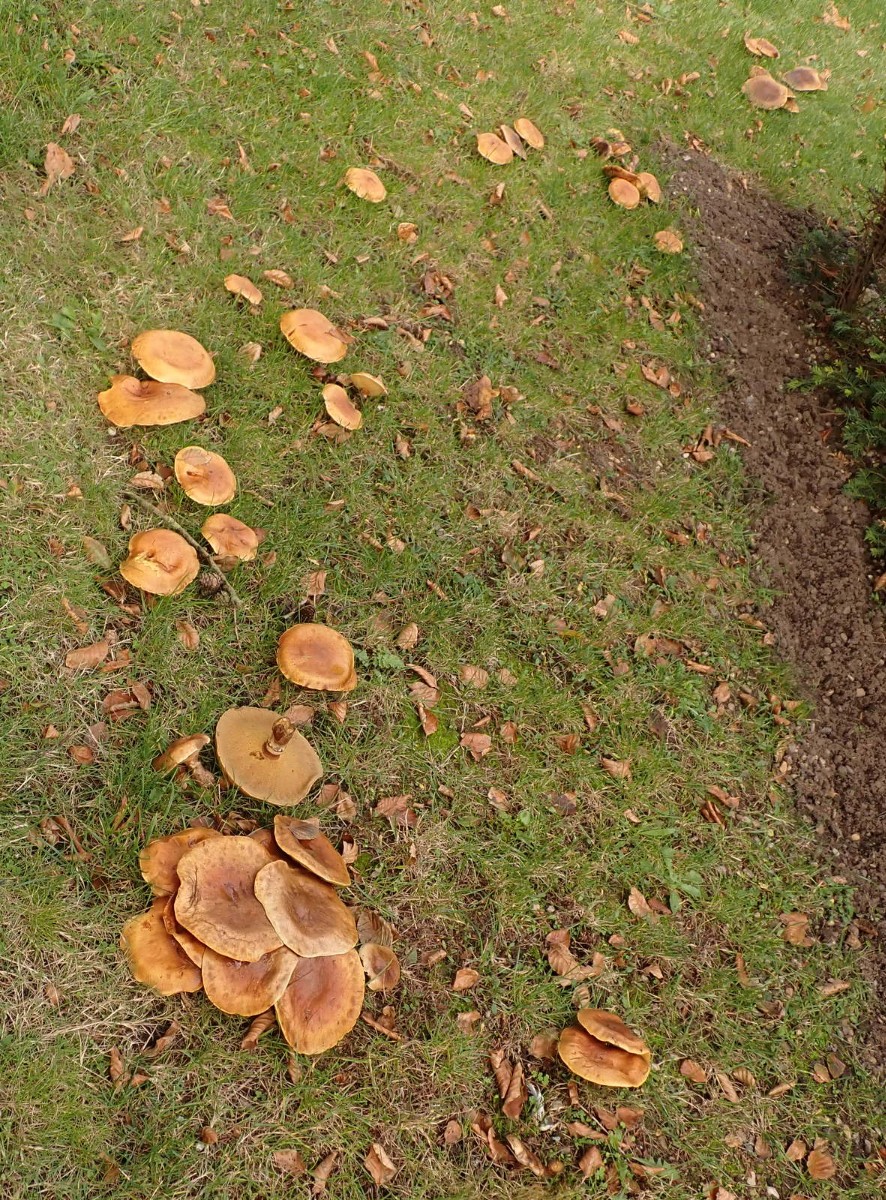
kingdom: Fungi
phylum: Basidiomycota
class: Agaricomycetes
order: Boletales
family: Suillaceae
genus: Suillus
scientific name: Suillus grevillei
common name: lærke-slimrørhat
